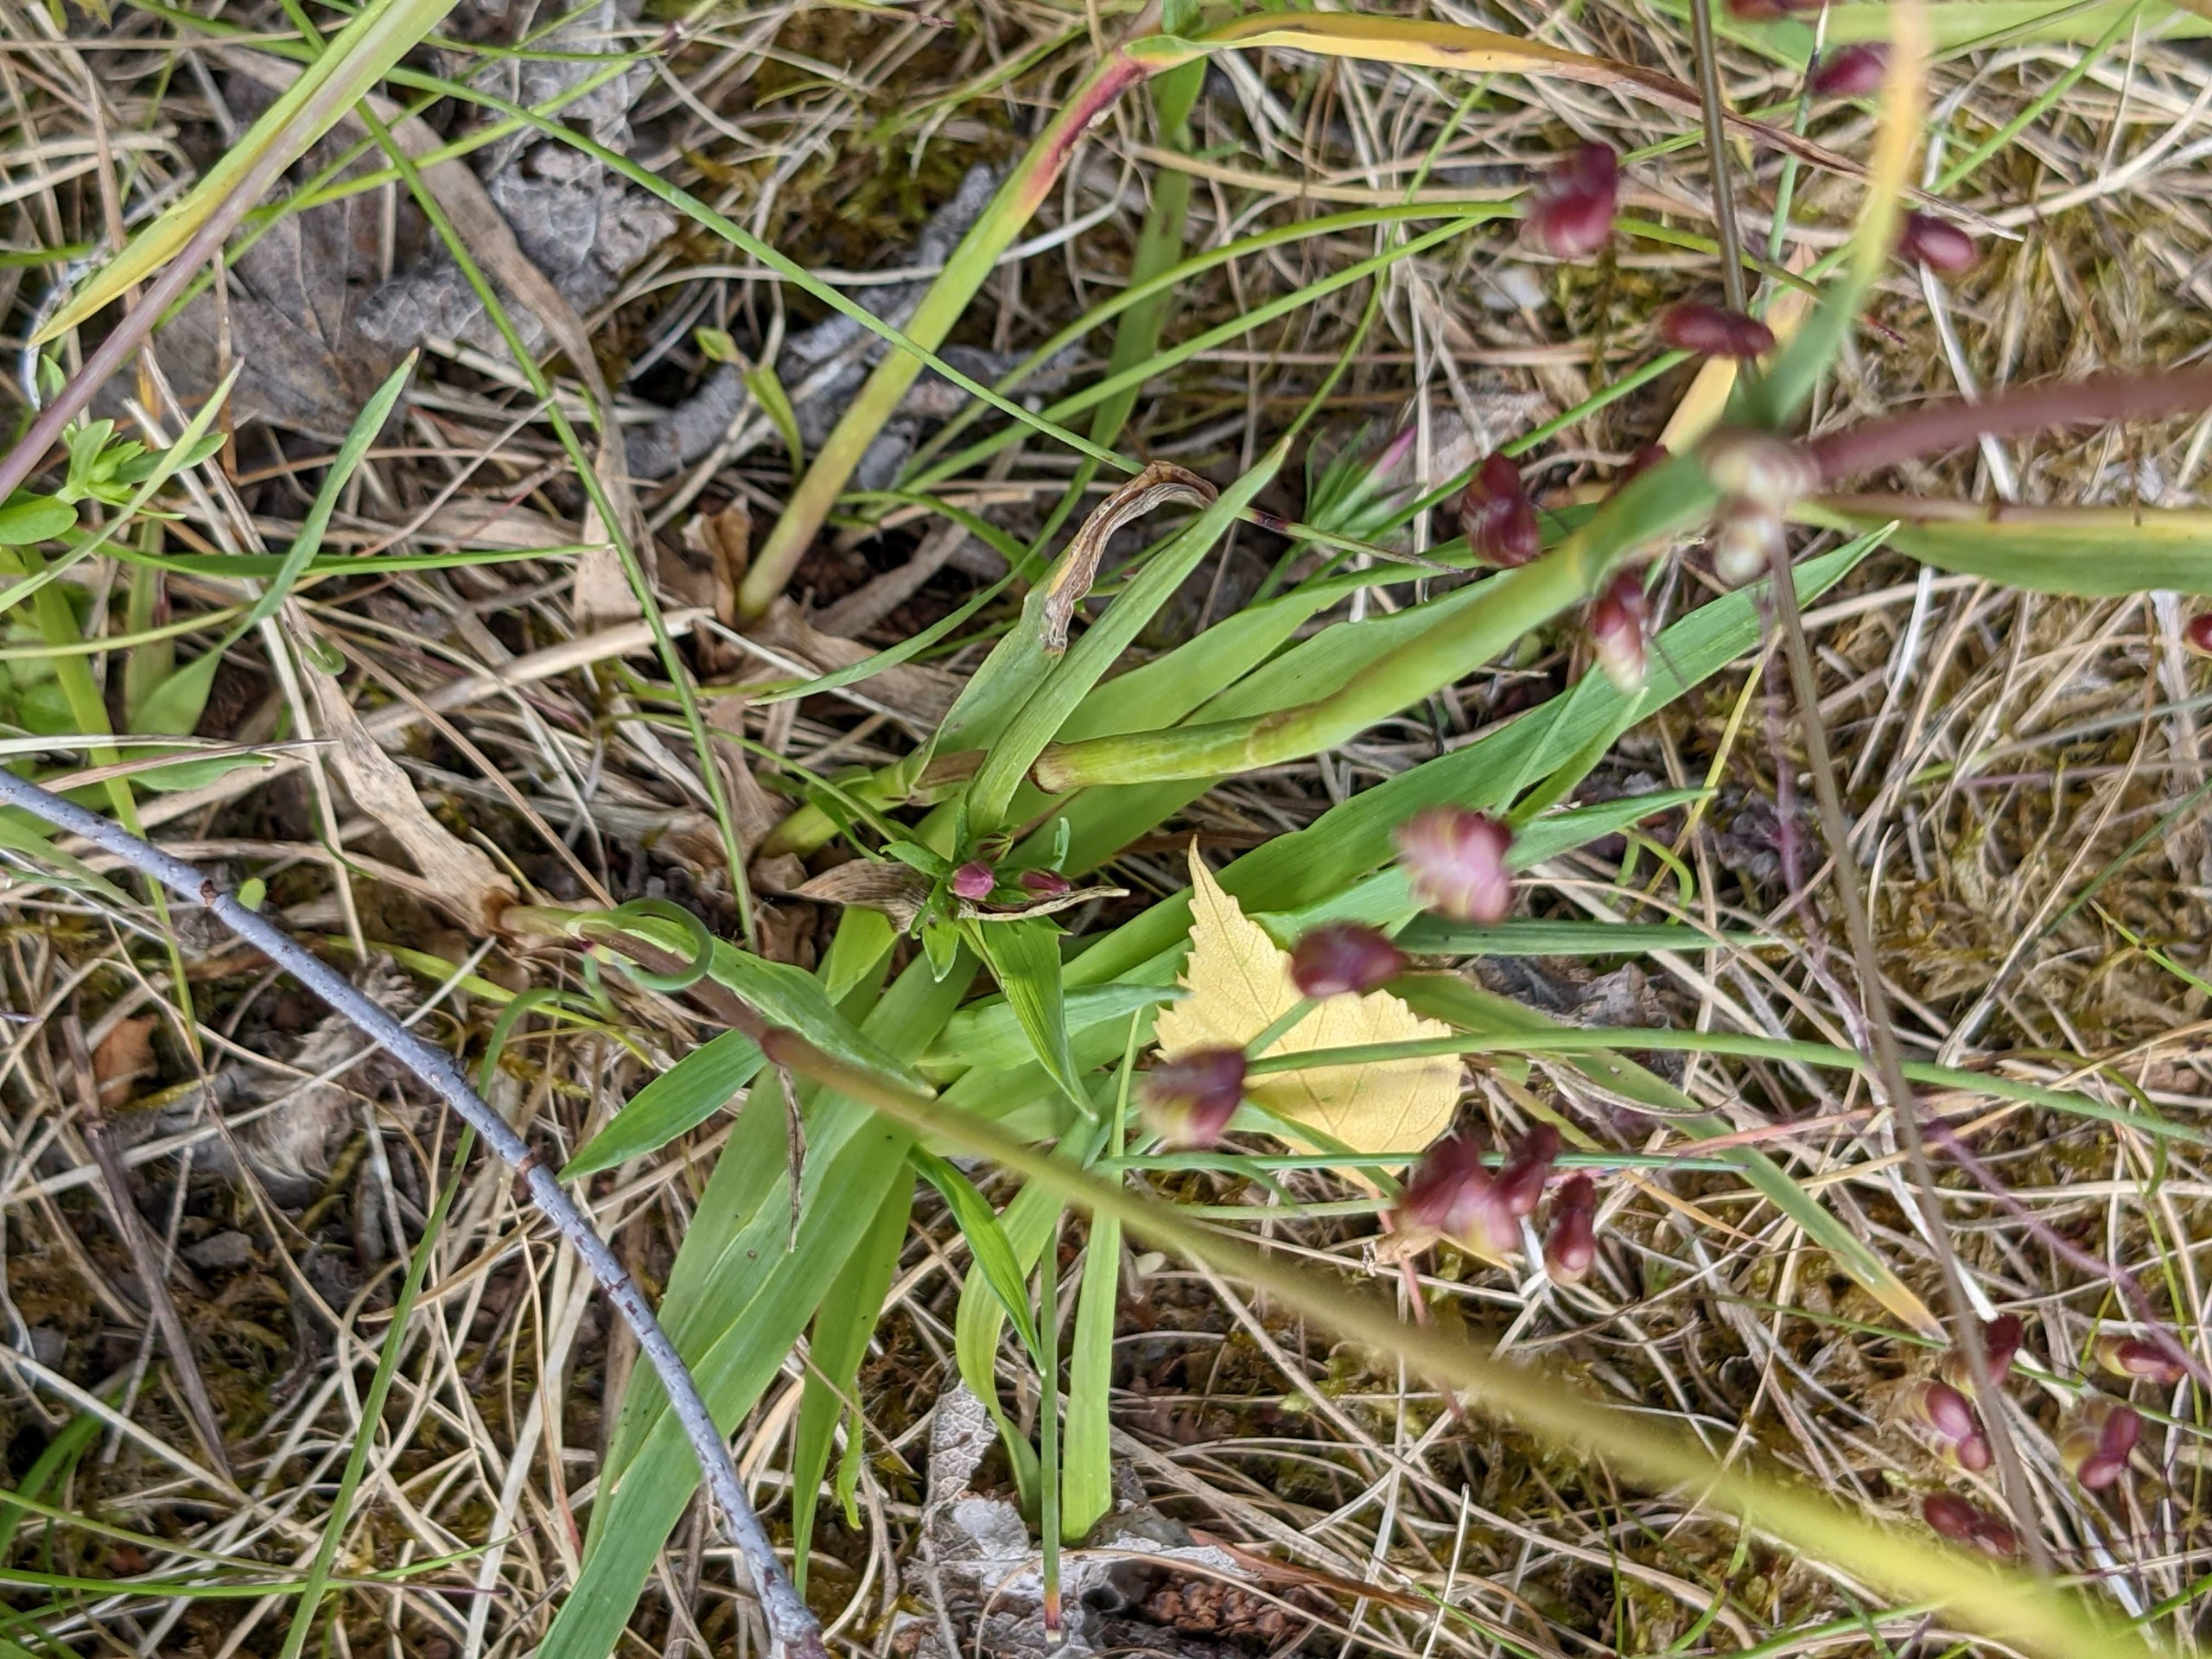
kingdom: Plantae
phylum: Tracheophyta
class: Liliopsida
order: Poales
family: Poaceae
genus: Briza
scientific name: Briza media
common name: Hjertegræs
